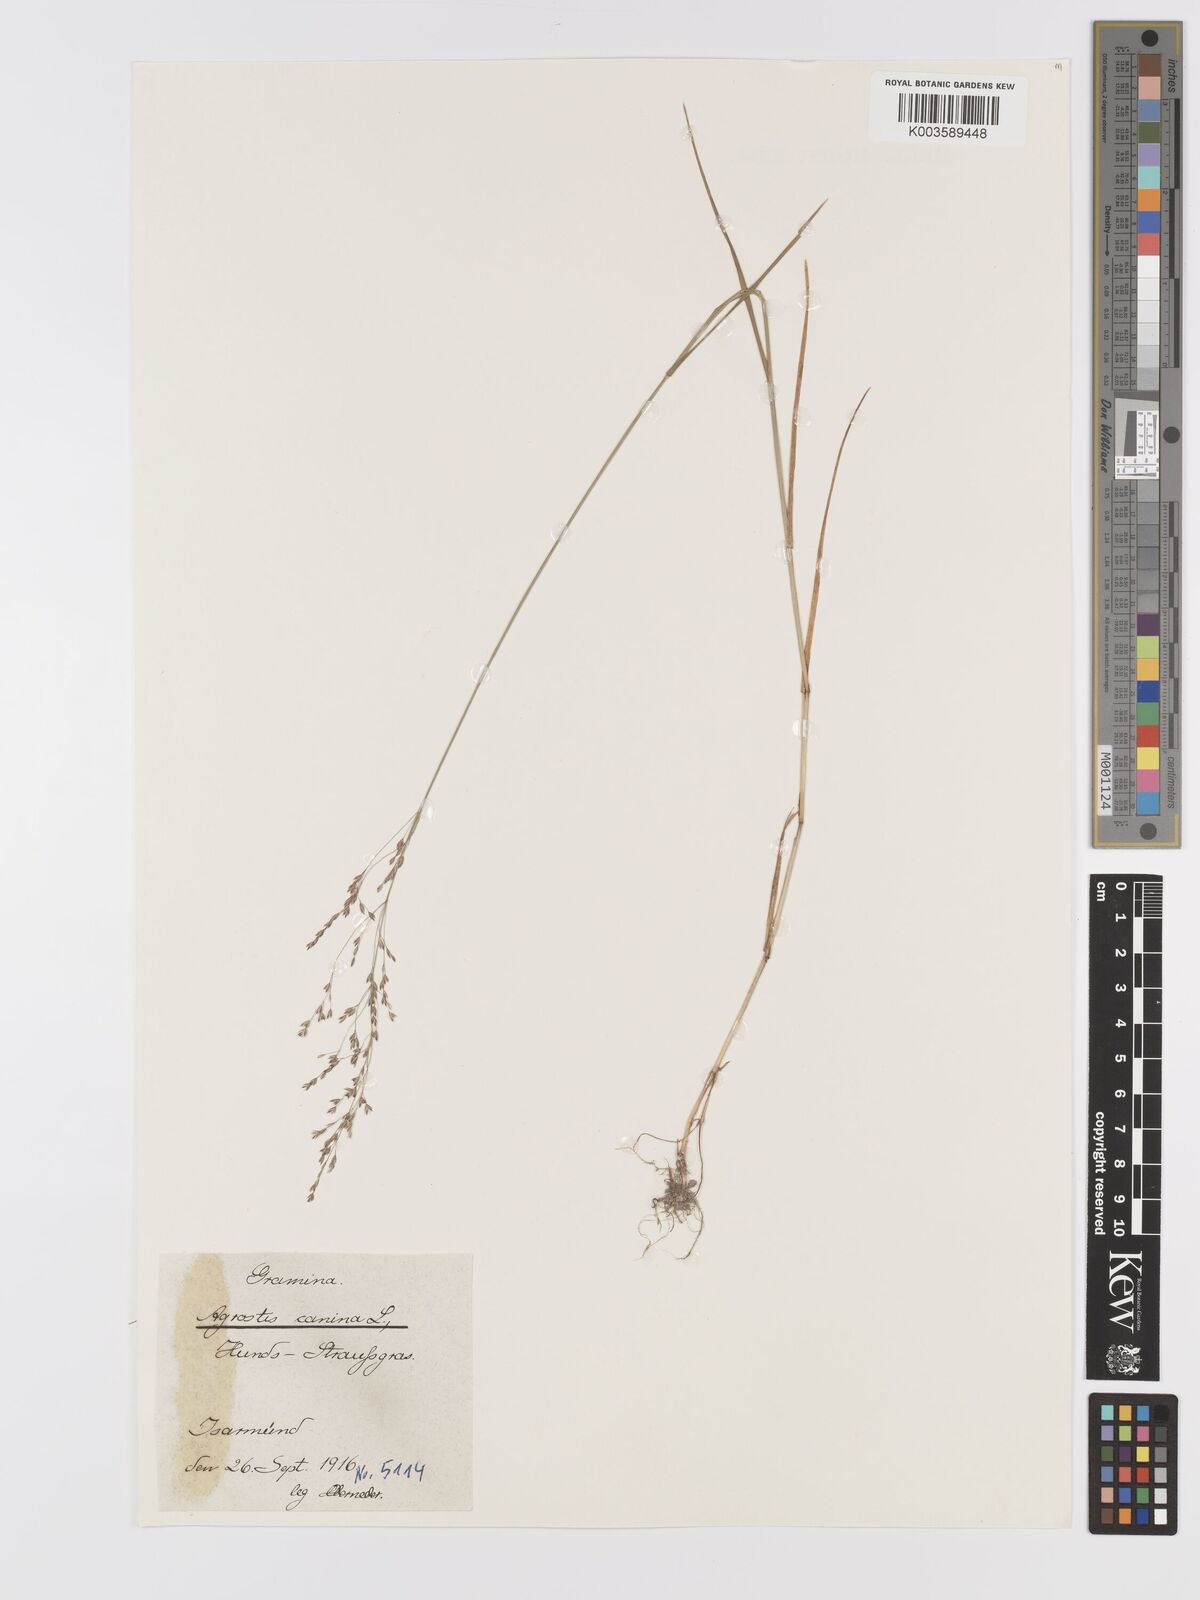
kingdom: Plantae
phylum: Tracheophyta
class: Liliopsida
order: Poales
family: Poaceae
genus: Agrostis
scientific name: Agrostis canina
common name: Velvet bent
